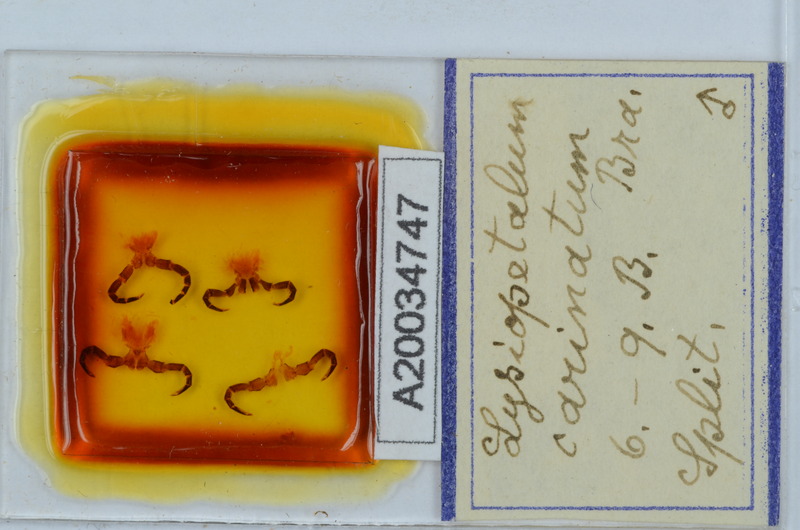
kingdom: Animalia
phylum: Arthropoda
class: Diplopoda
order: Callipodida
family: Schizopetalidae
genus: Acanthopetalum
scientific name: Acanthopetalum carinatum
